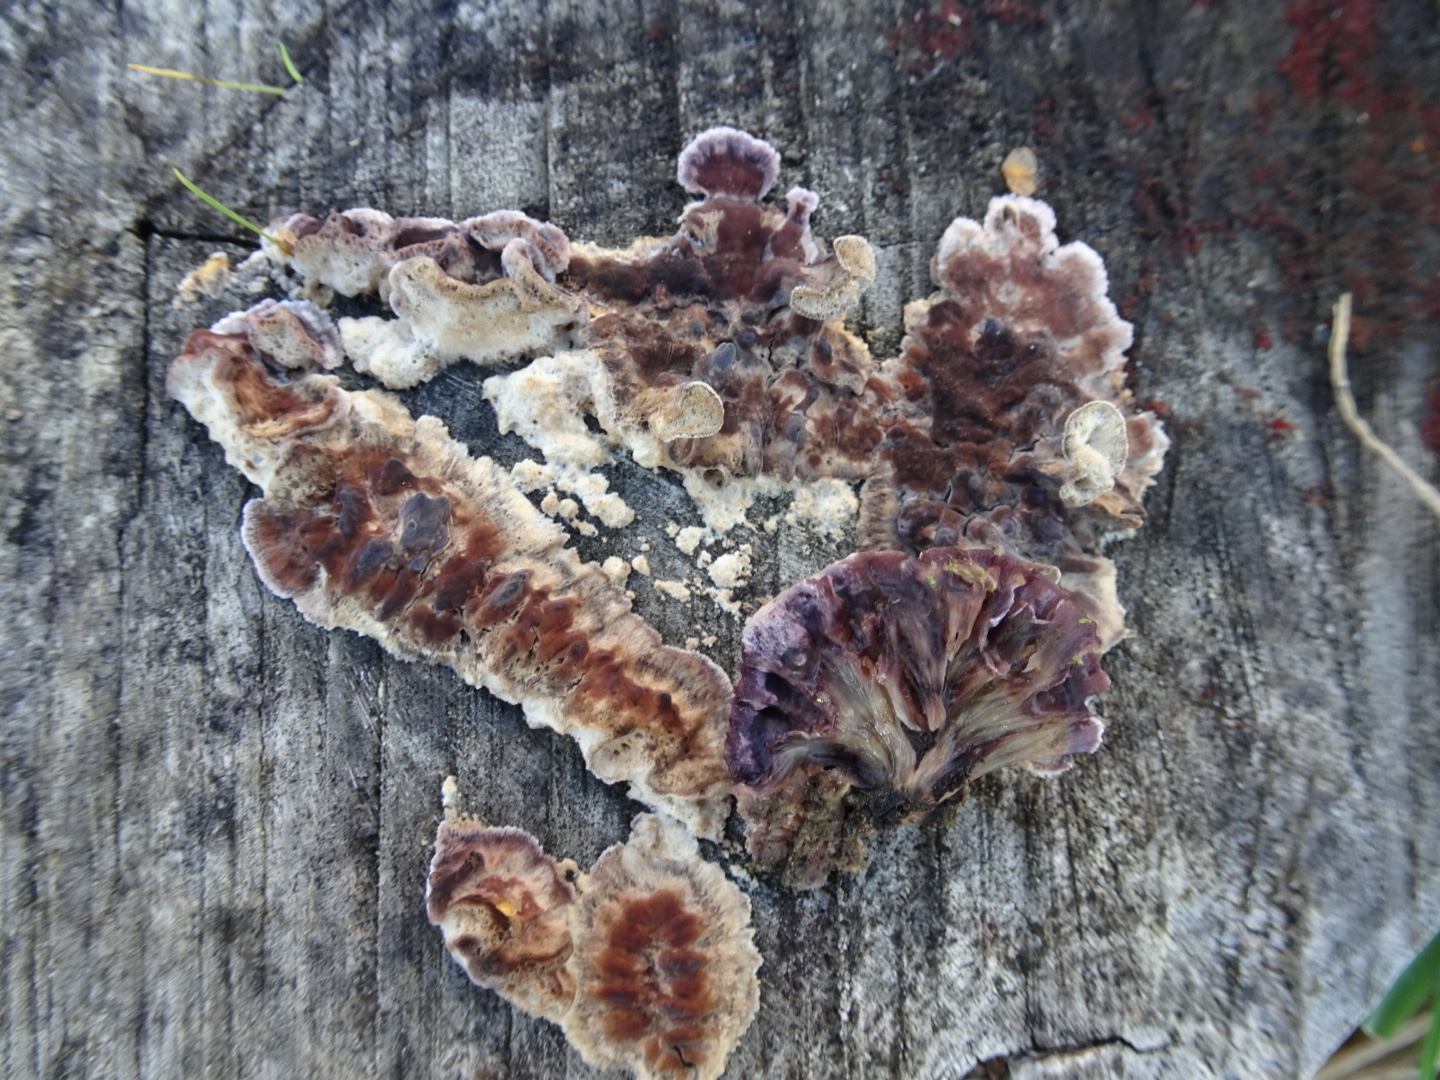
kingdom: Fungi
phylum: Basidiomycota
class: Agaricomycetes
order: Agaricales
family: Cyphellaceae
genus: Chondrostereum
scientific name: Chondrostereum purpureum
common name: purpurlædersvamp
